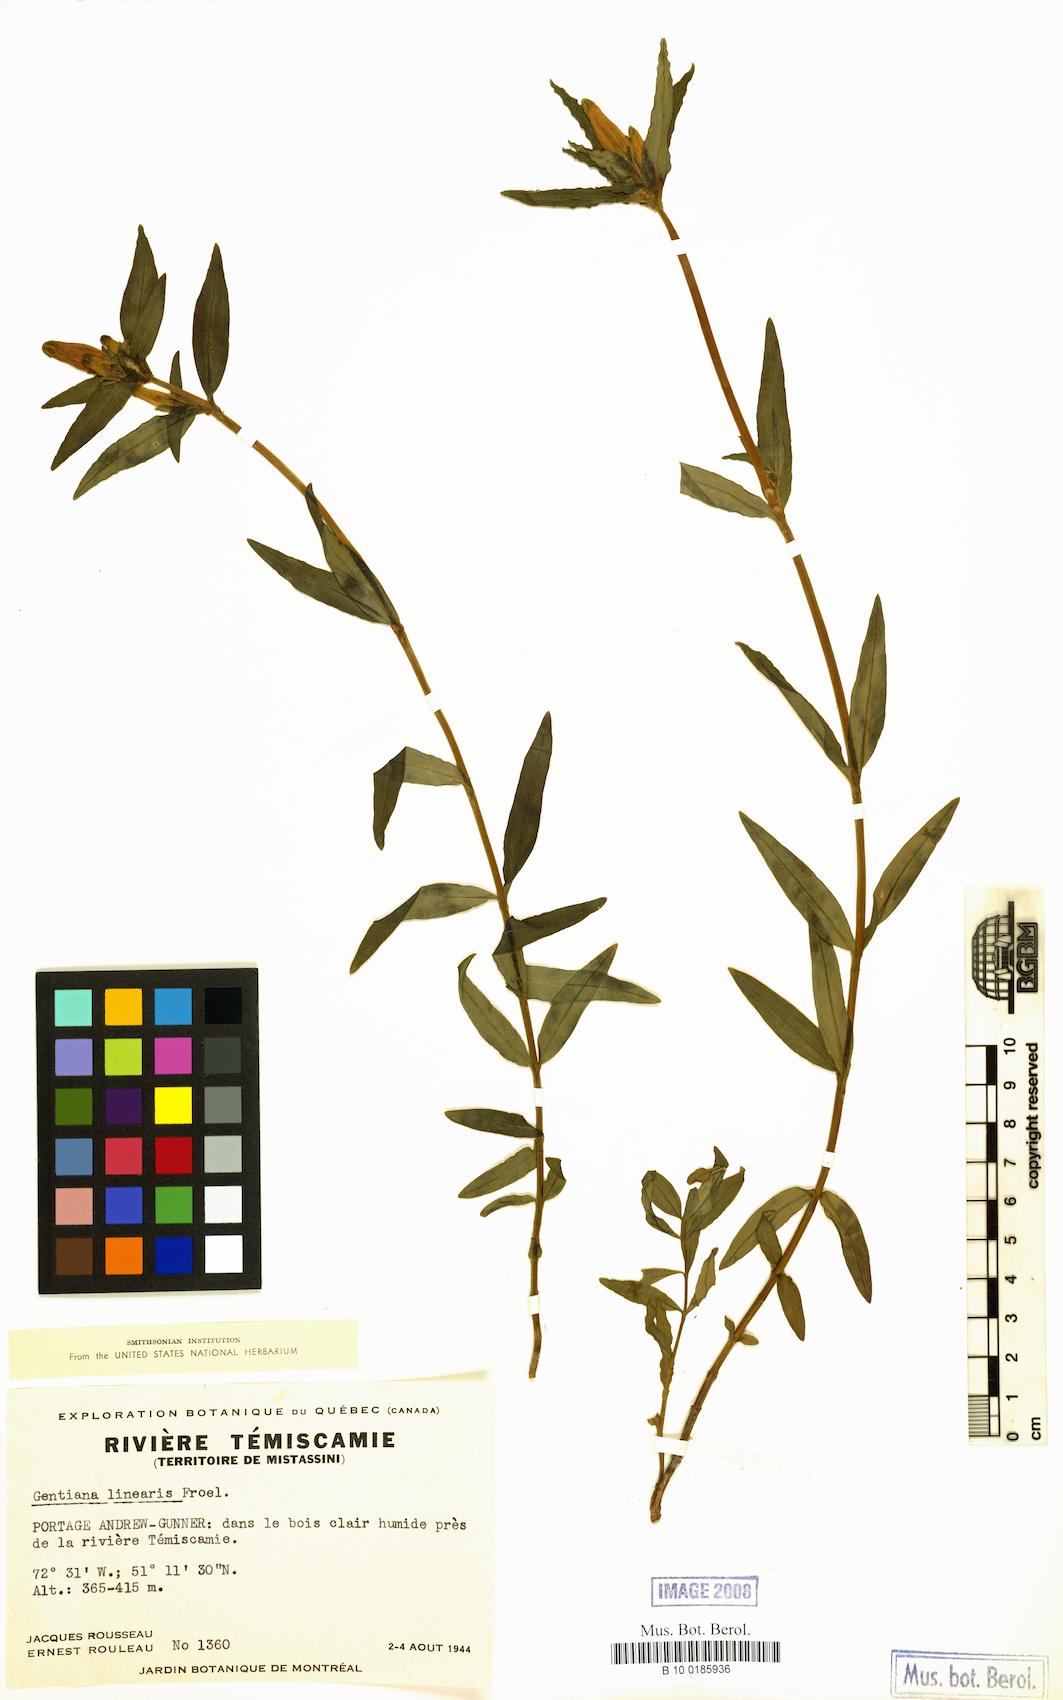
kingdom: Plantae
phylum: Tracheophyta
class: Magnoliopsida
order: Gentianales
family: Gentianaceae
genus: Gentiana
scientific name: Gentiana linearis
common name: Bastard gentian
